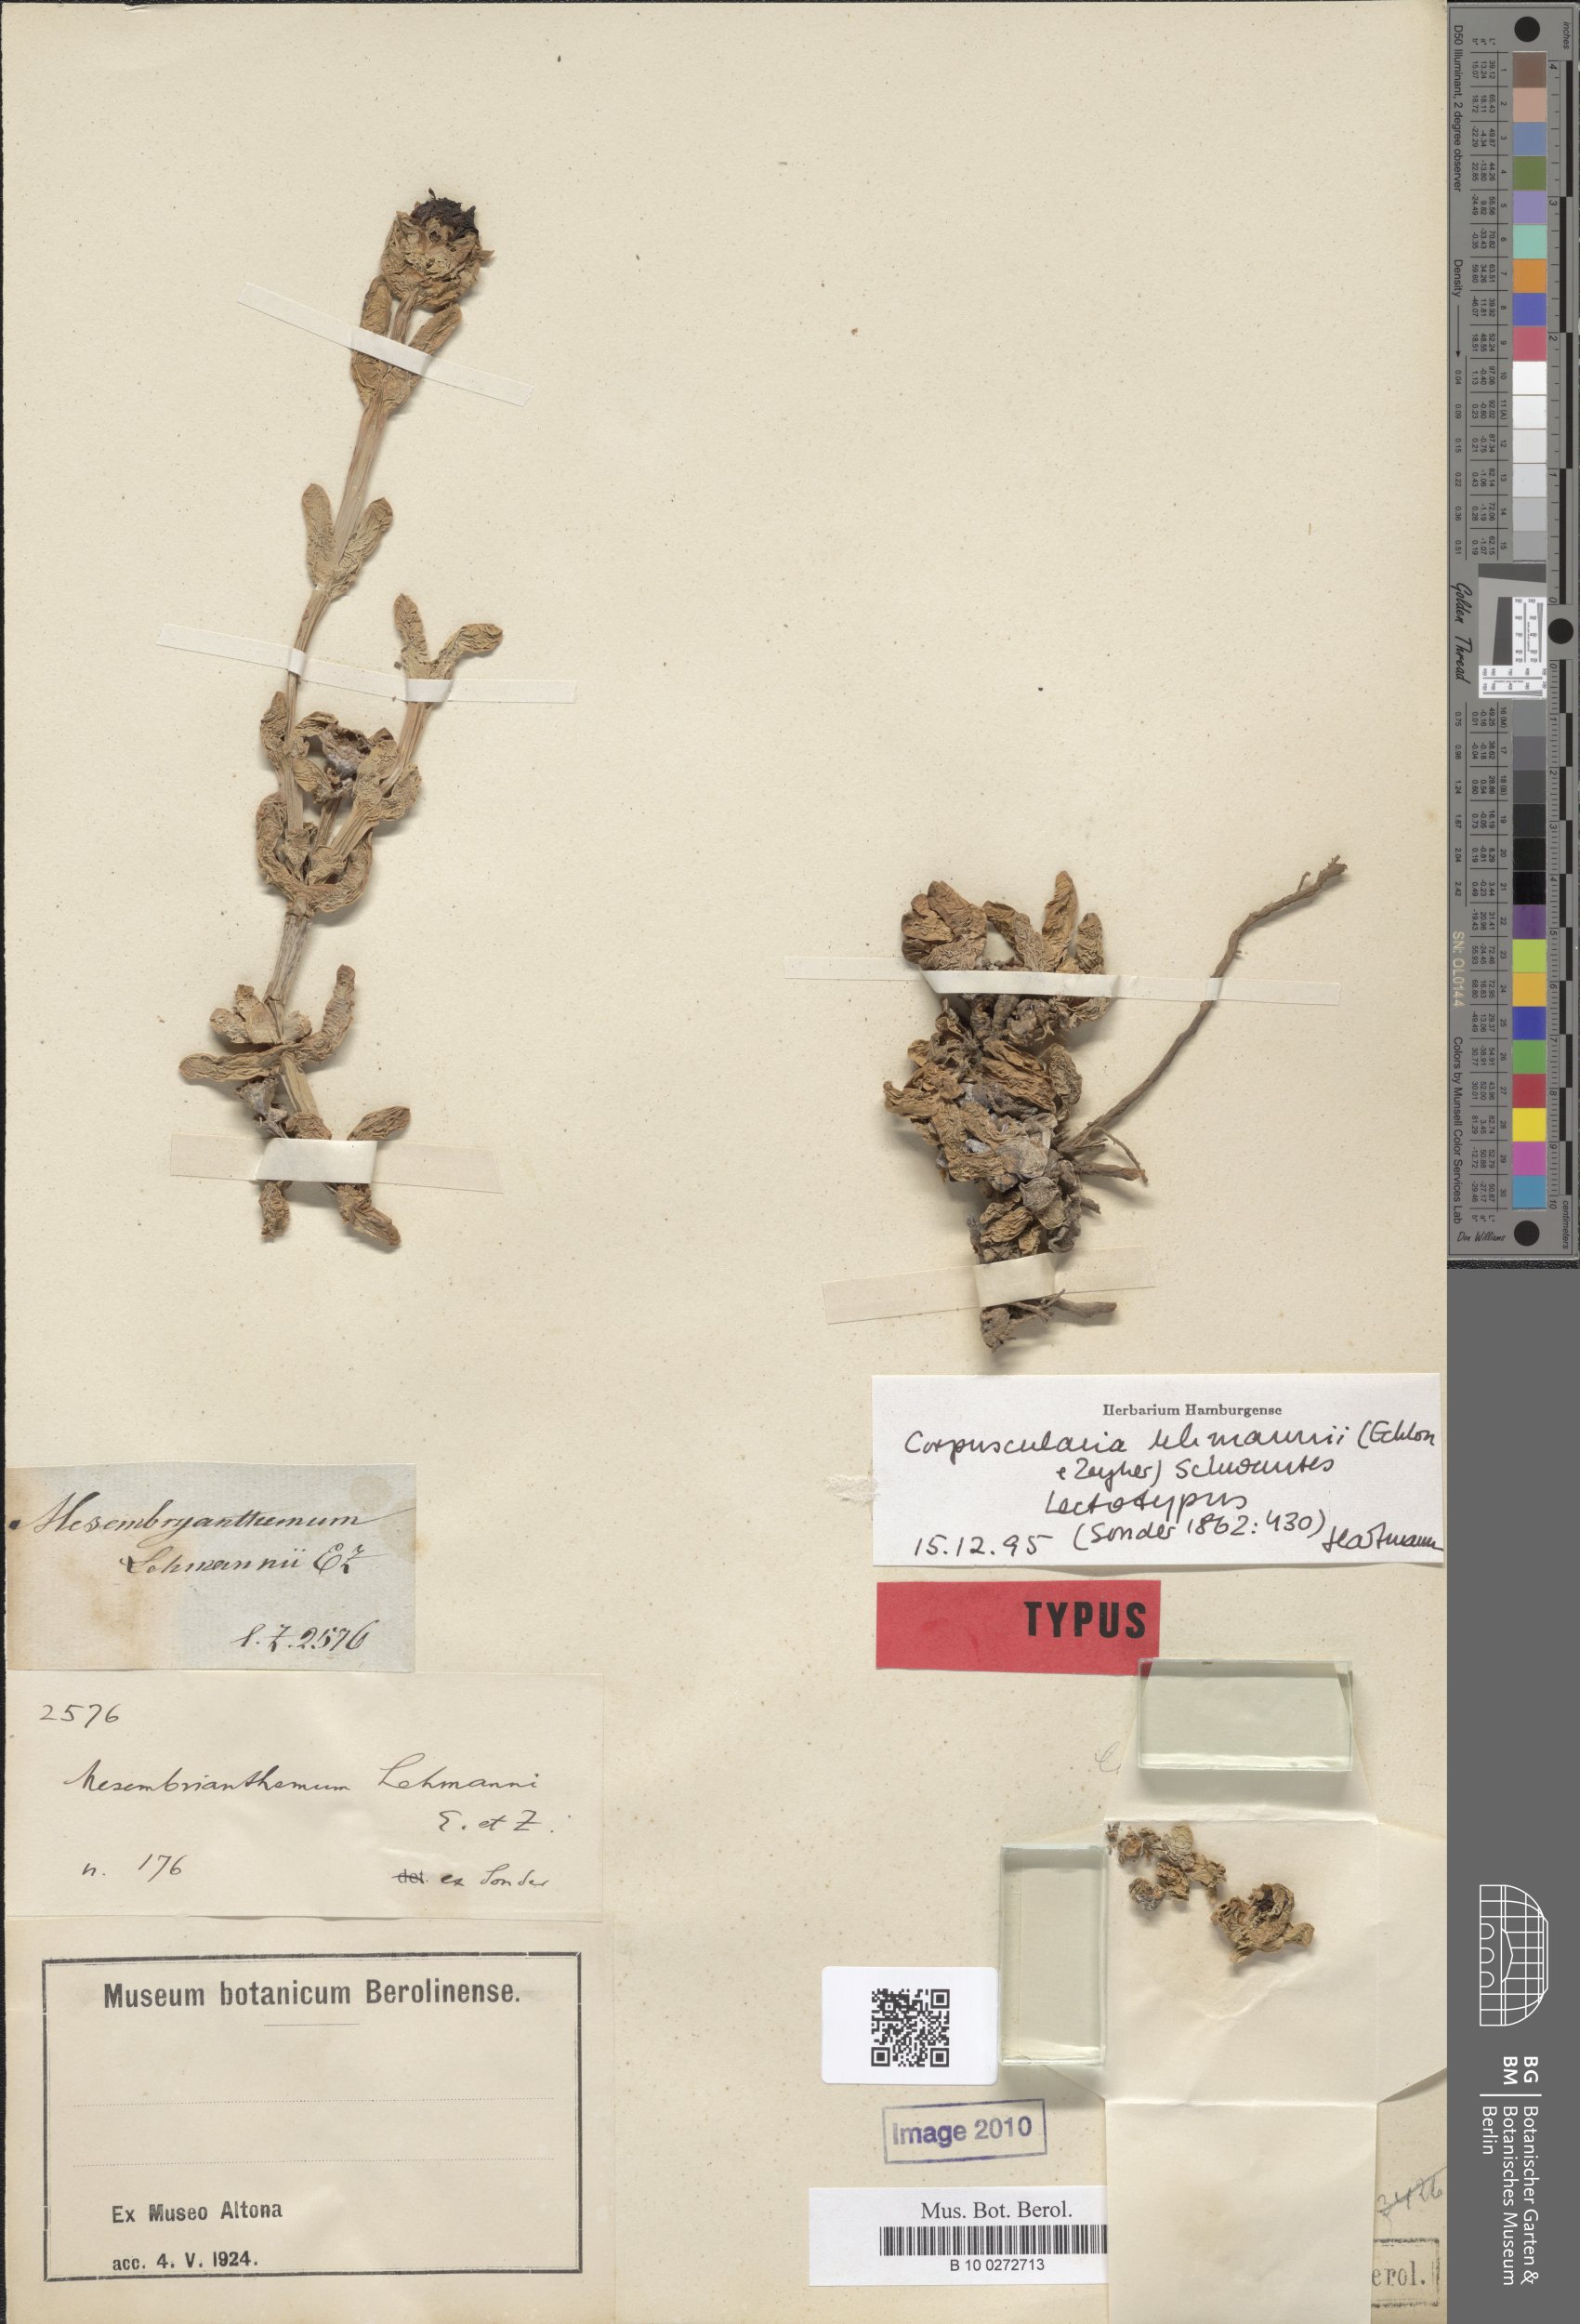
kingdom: Plantae
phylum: Tracheophyta
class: Magnoliopsida
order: Caryophyllales
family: Aizoaceae
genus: Corpuscularia
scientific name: Corpuscularia lehmannii
